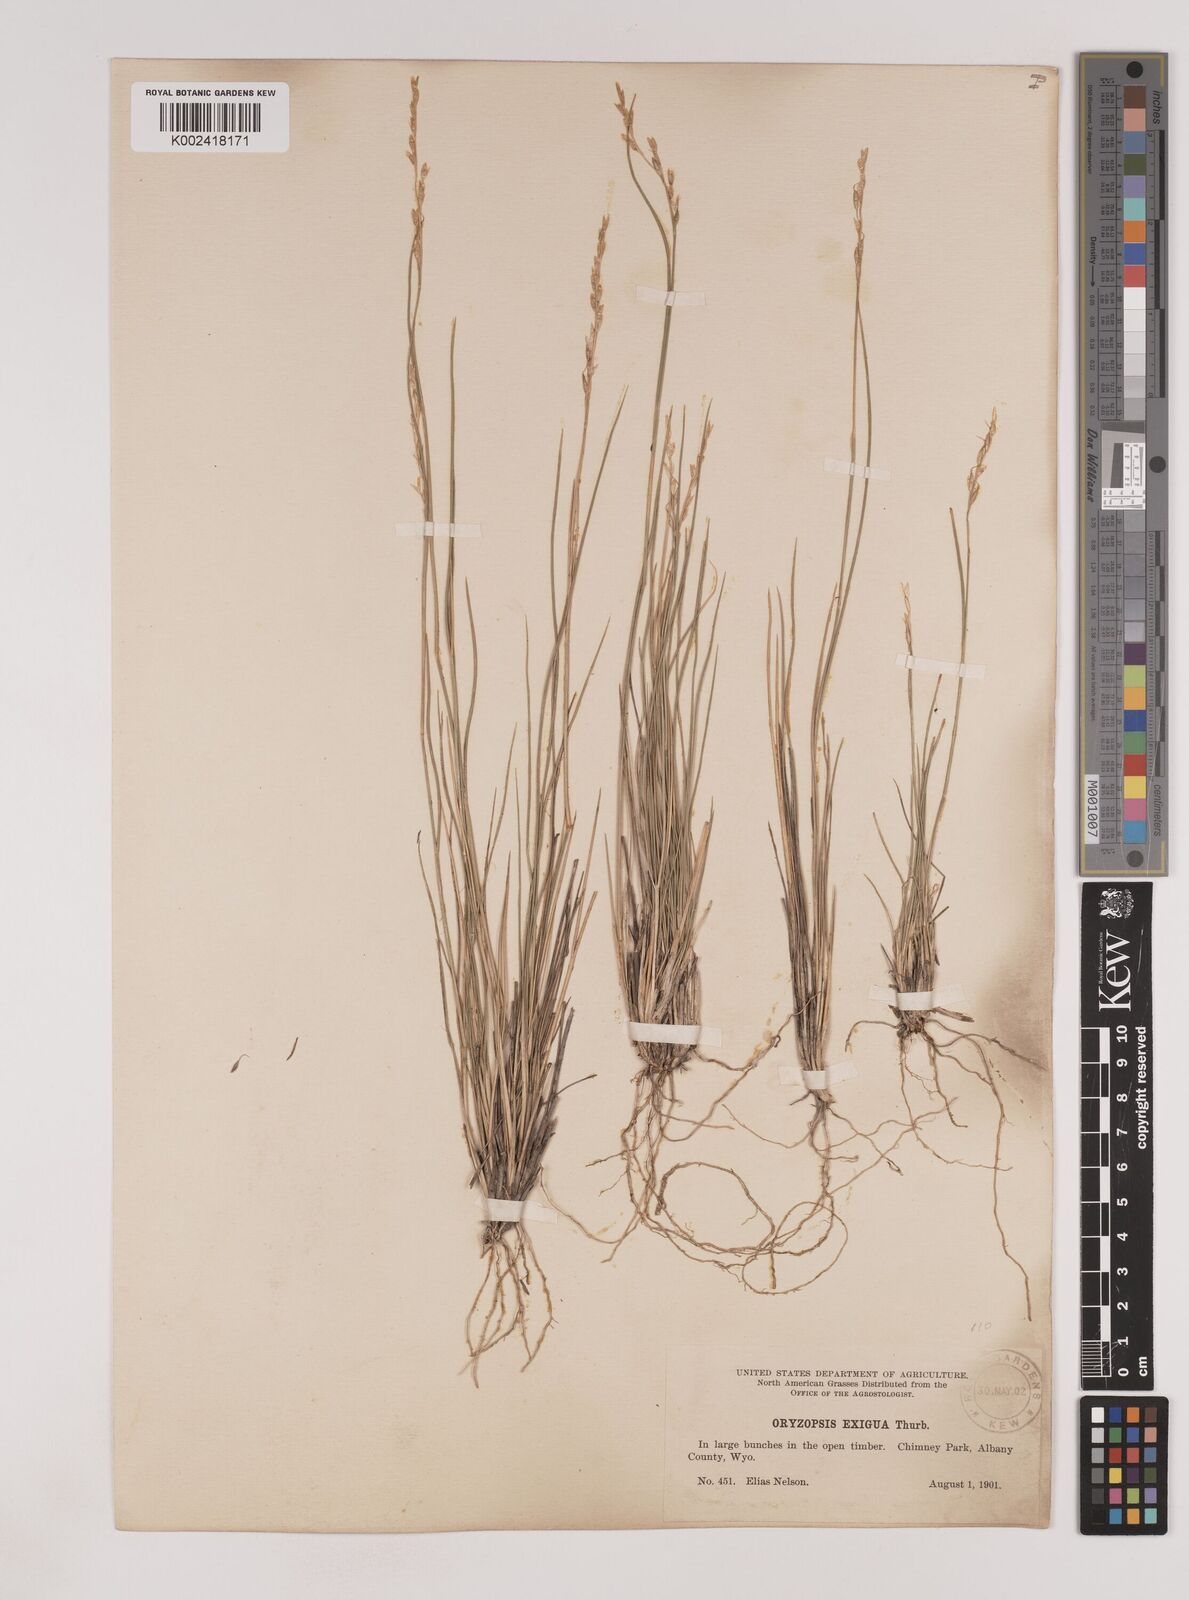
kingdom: Plantae
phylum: Tracheophyta
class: Liliopsida
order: Poales
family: Poaceae
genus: Piptatheropsis
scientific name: Piptatheropsis exigua
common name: Little mountain ricegrass
